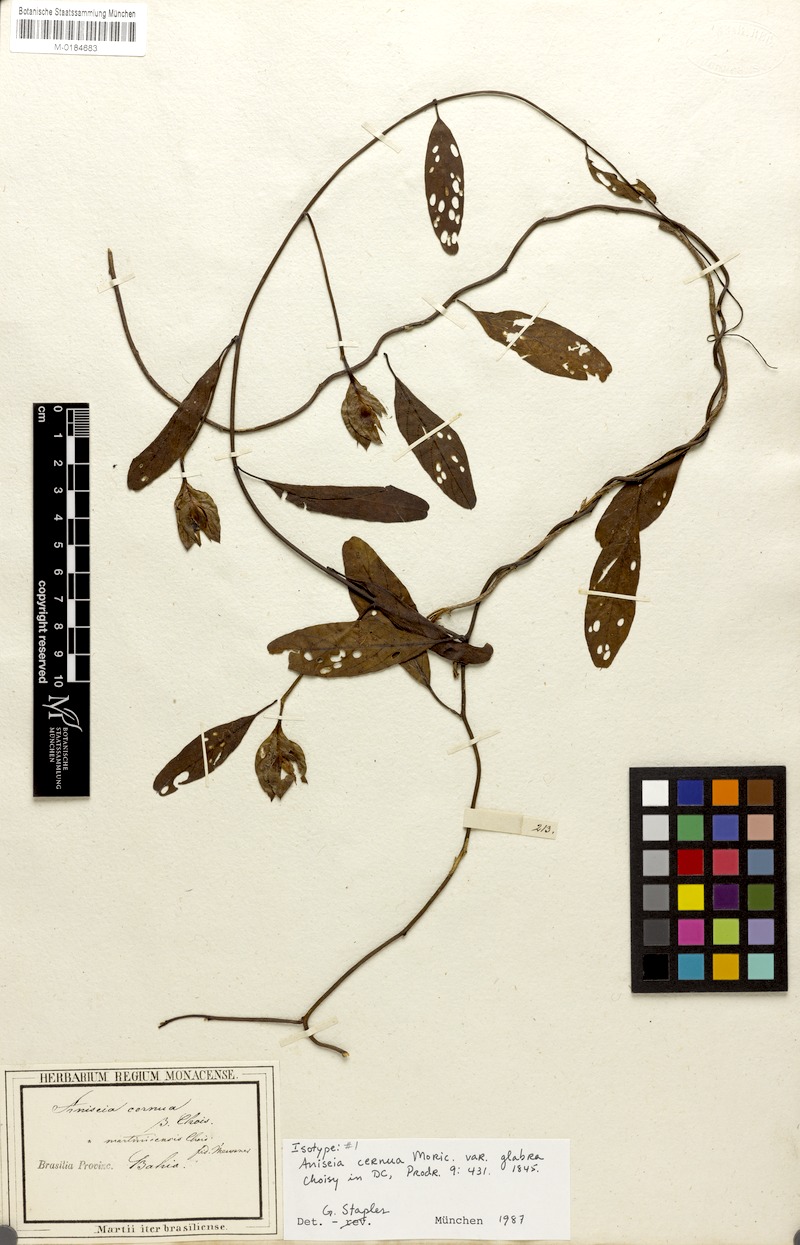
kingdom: Plantae
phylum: Tracheophyta
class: Magnoliopsida
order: Solanales
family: Convolvulaceae
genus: Aniseia
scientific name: Aniseia cernua
